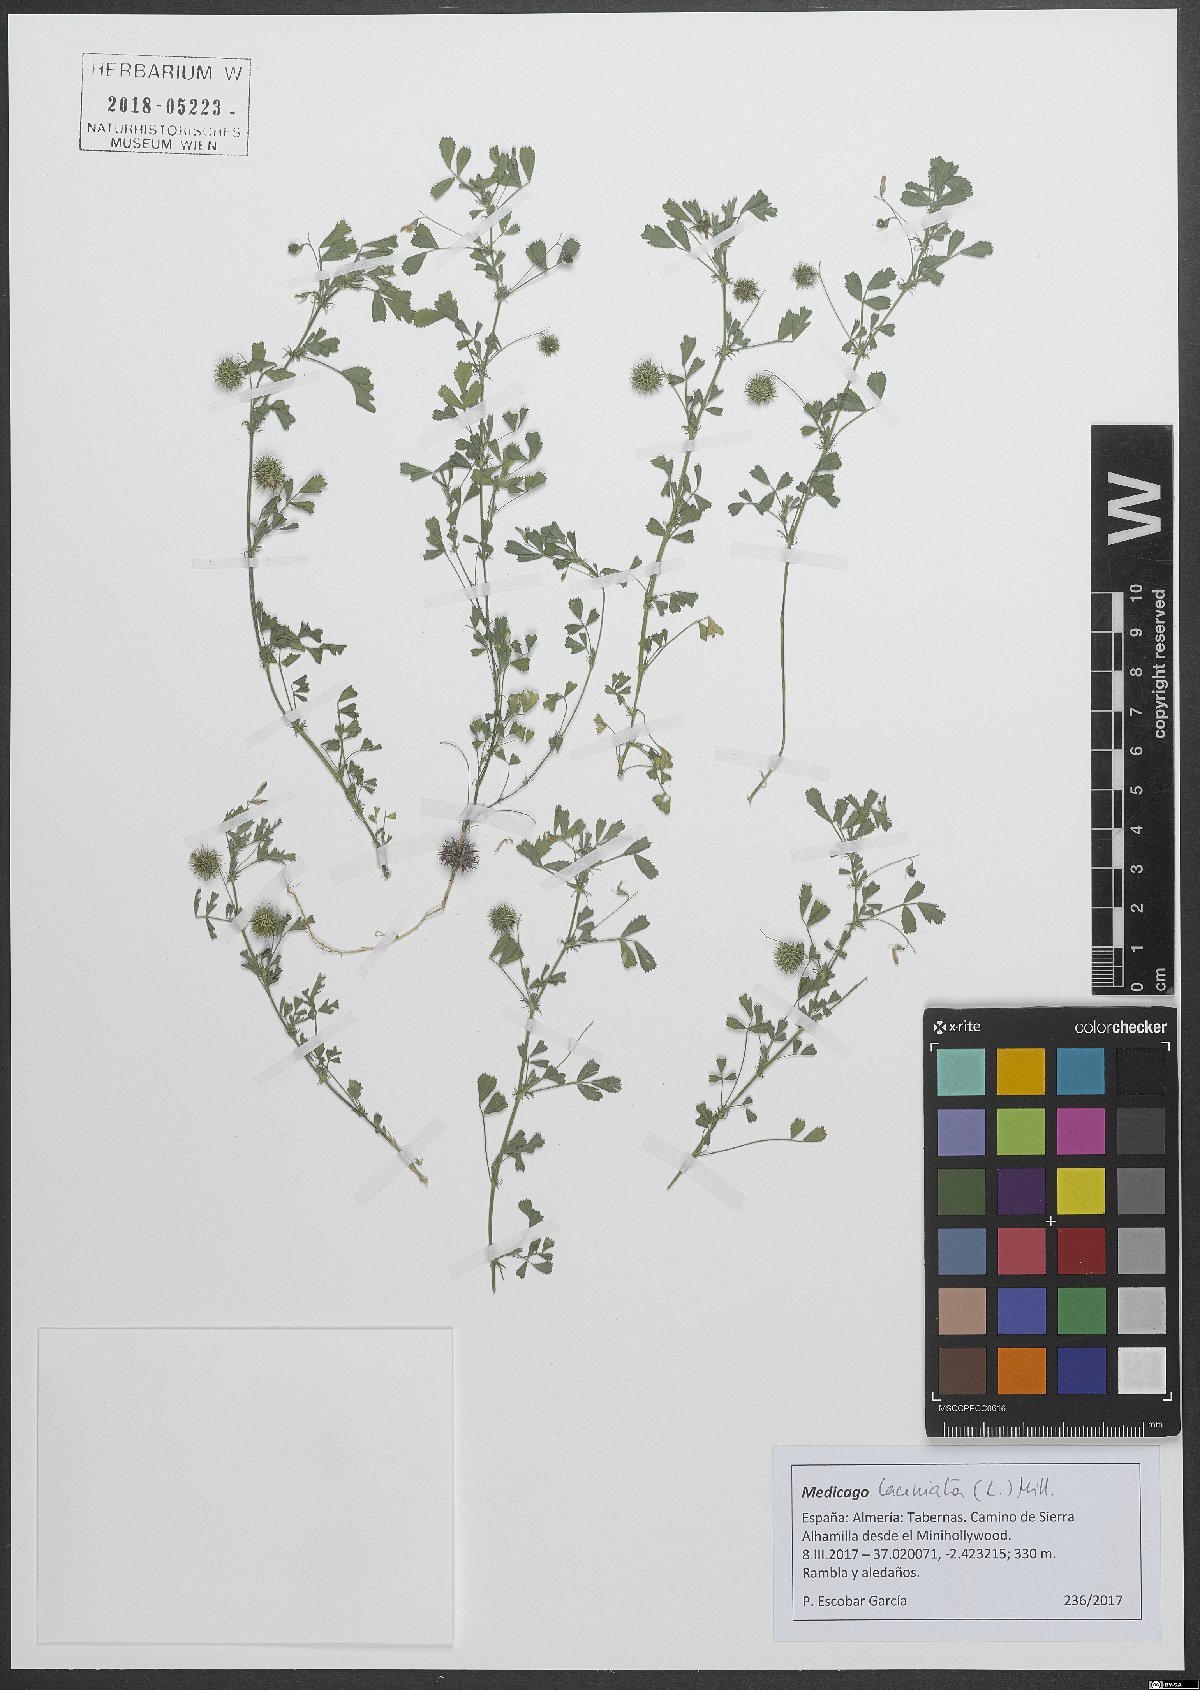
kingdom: Plantae
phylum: Tracheophyta
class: Magnoliopsida
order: Fabales
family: Fabaceae
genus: Medicago
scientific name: Medicago laciniata
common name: Tattered medick
